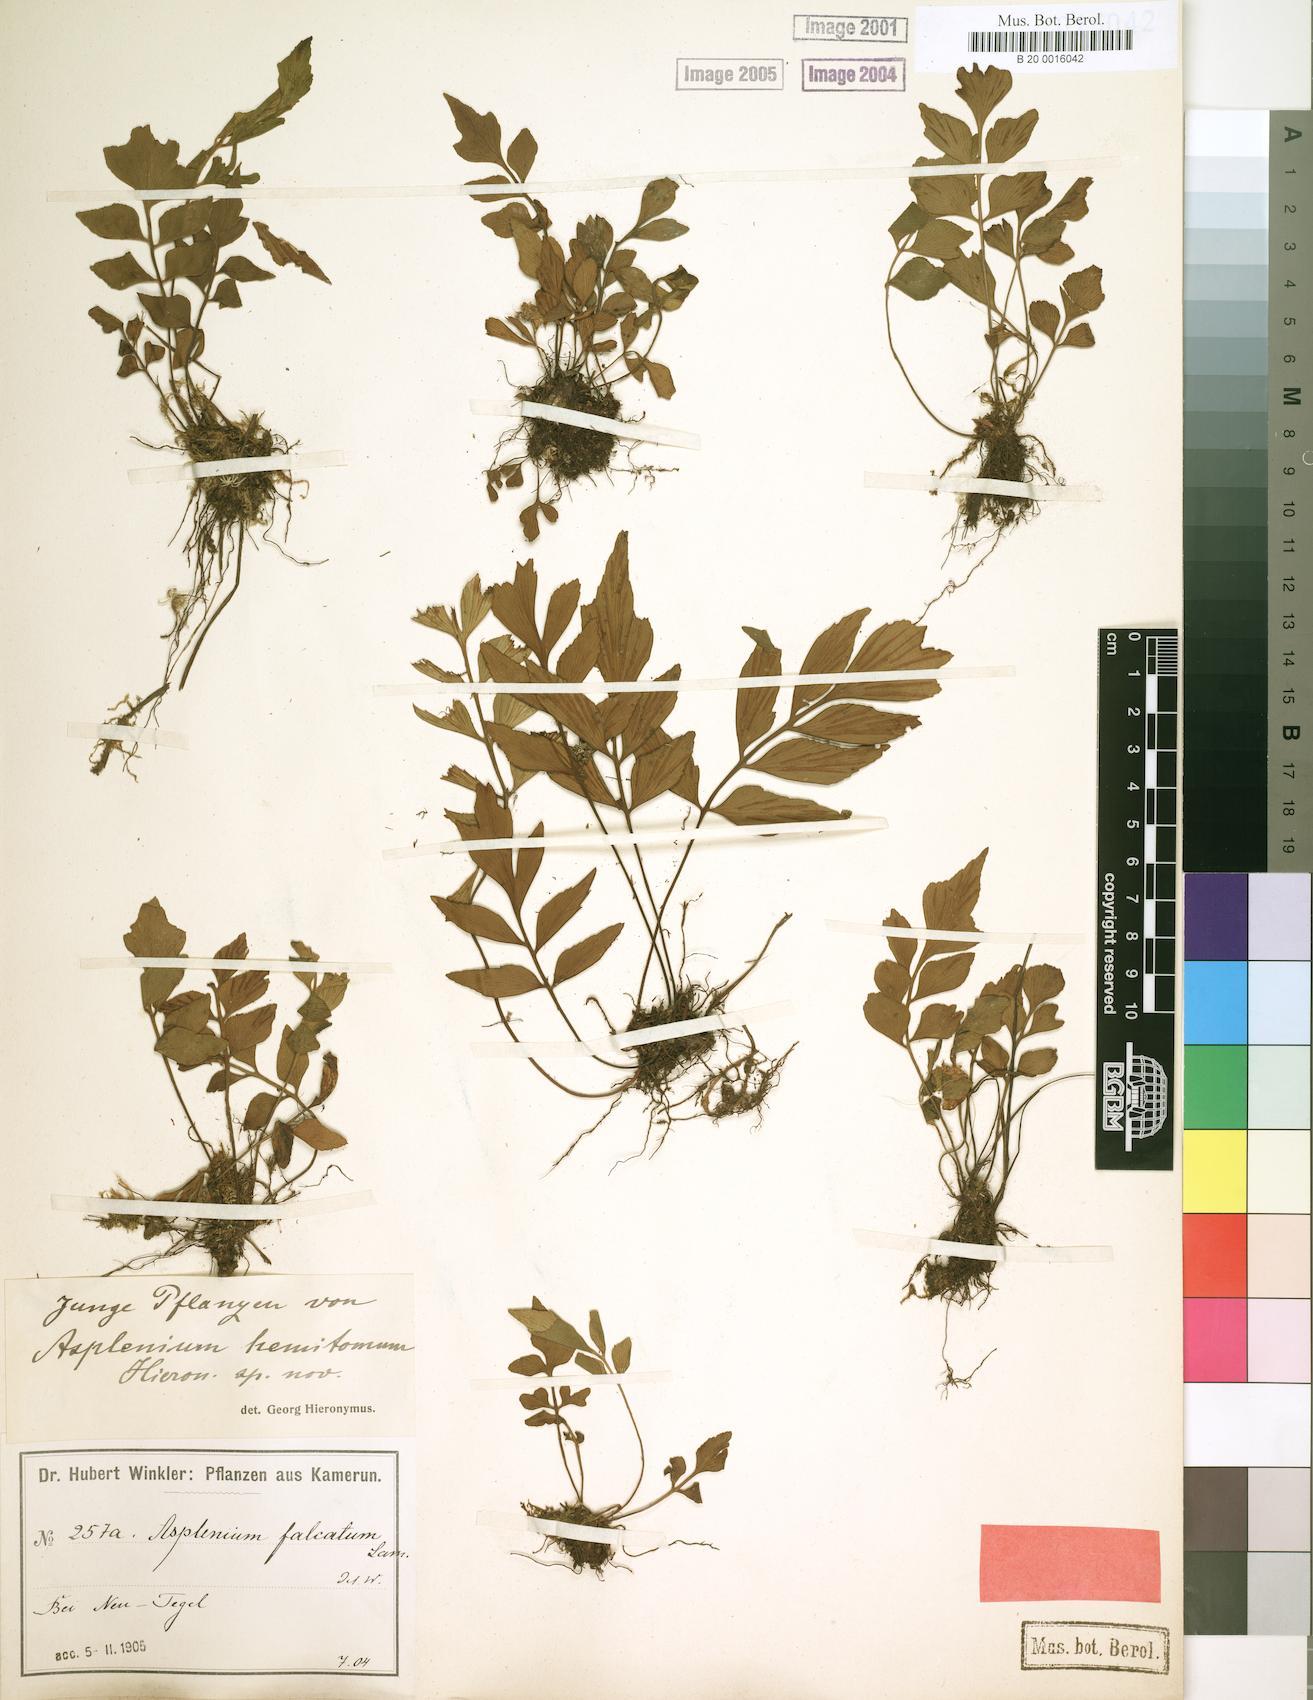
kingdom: Plantae
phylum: Tracheophyta
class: Polypodiopsida
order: Polypodiales
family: Aspleniaceae
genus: Asplenium
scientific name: Asplenium hemitomum
